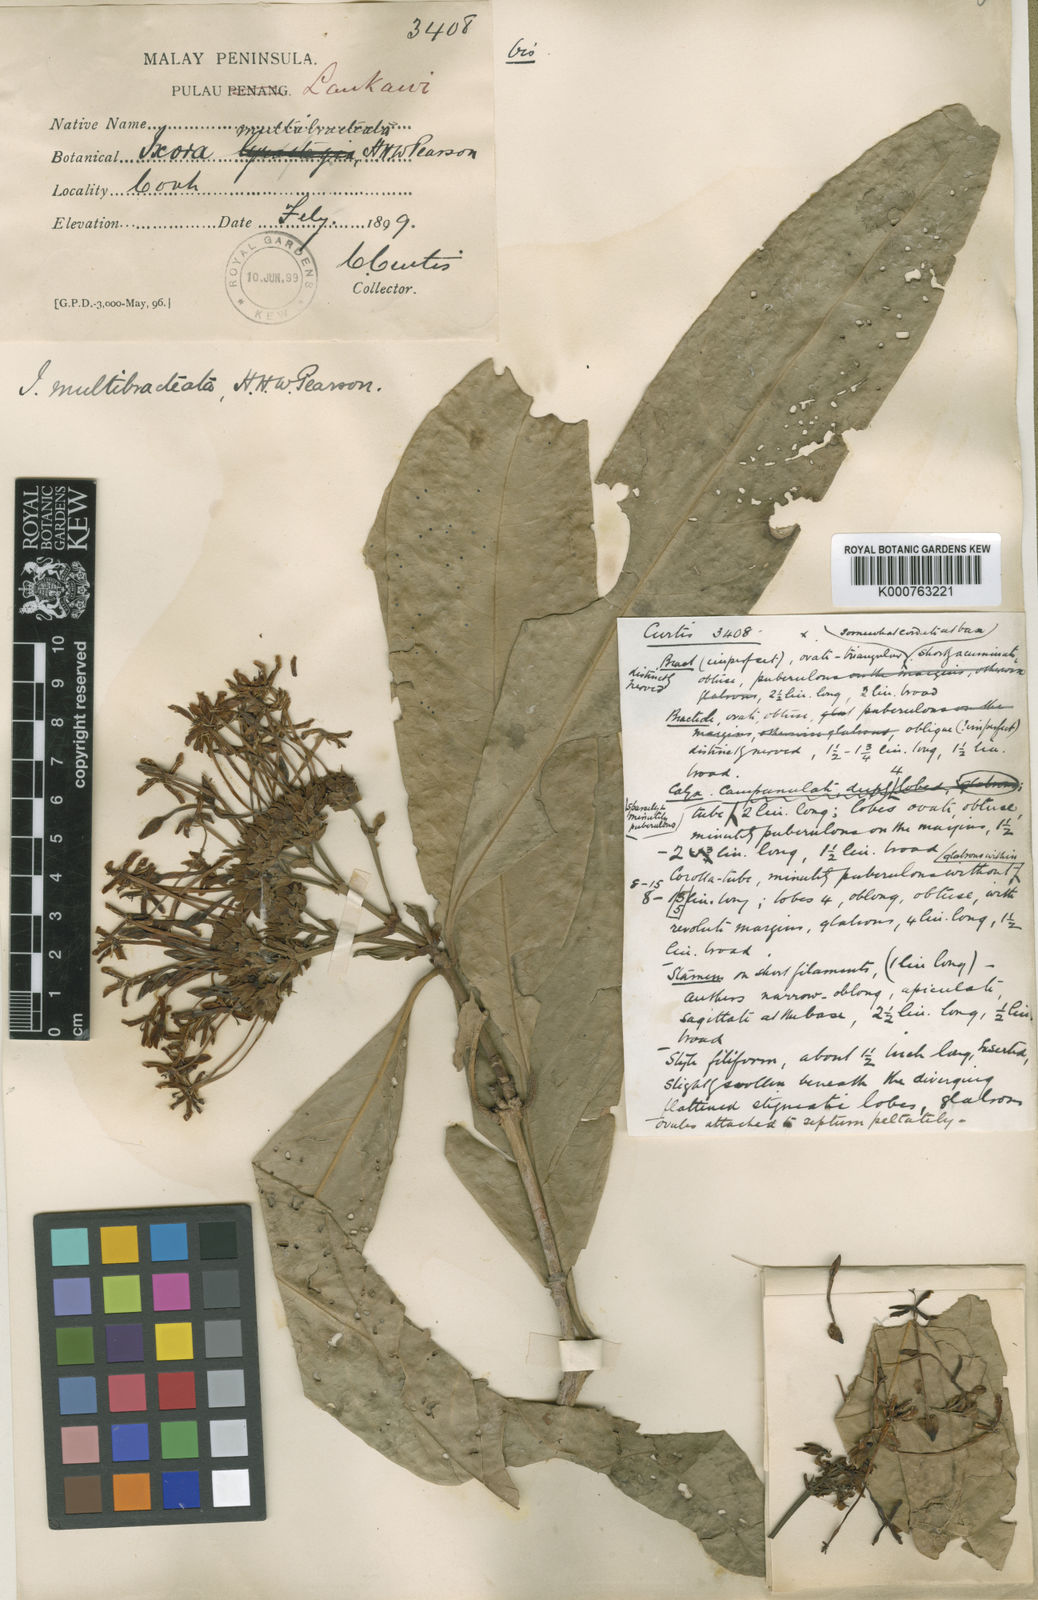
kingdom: Plantae
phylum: Tracheophyta
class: Magnoliopsida
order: Gentianales
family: Rubiaceae
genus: Ixora
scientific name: Ixora umbellata
